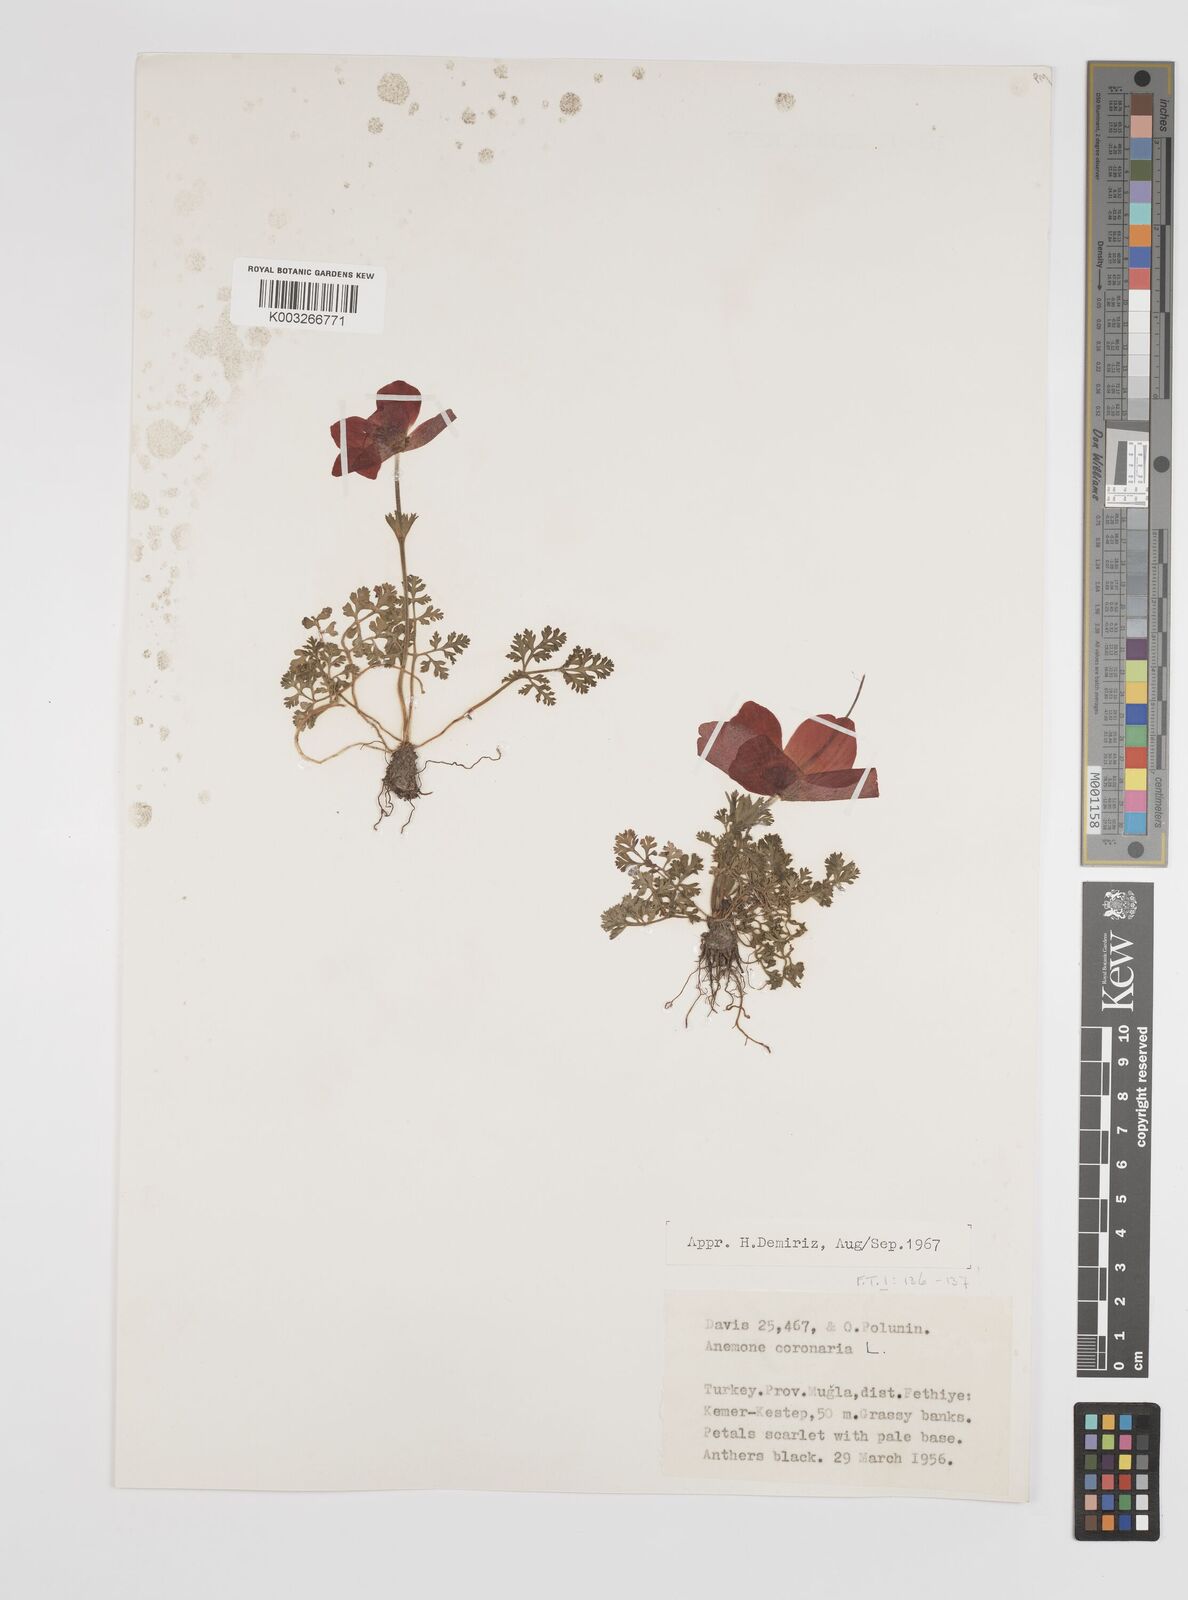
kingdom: Plantae
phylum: Tracheophyta
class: Magnoliopsida
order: Ranunculales
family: Ranunculaceae
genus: Anemone
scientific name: Anemone coronaria
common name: Poppy anemone
